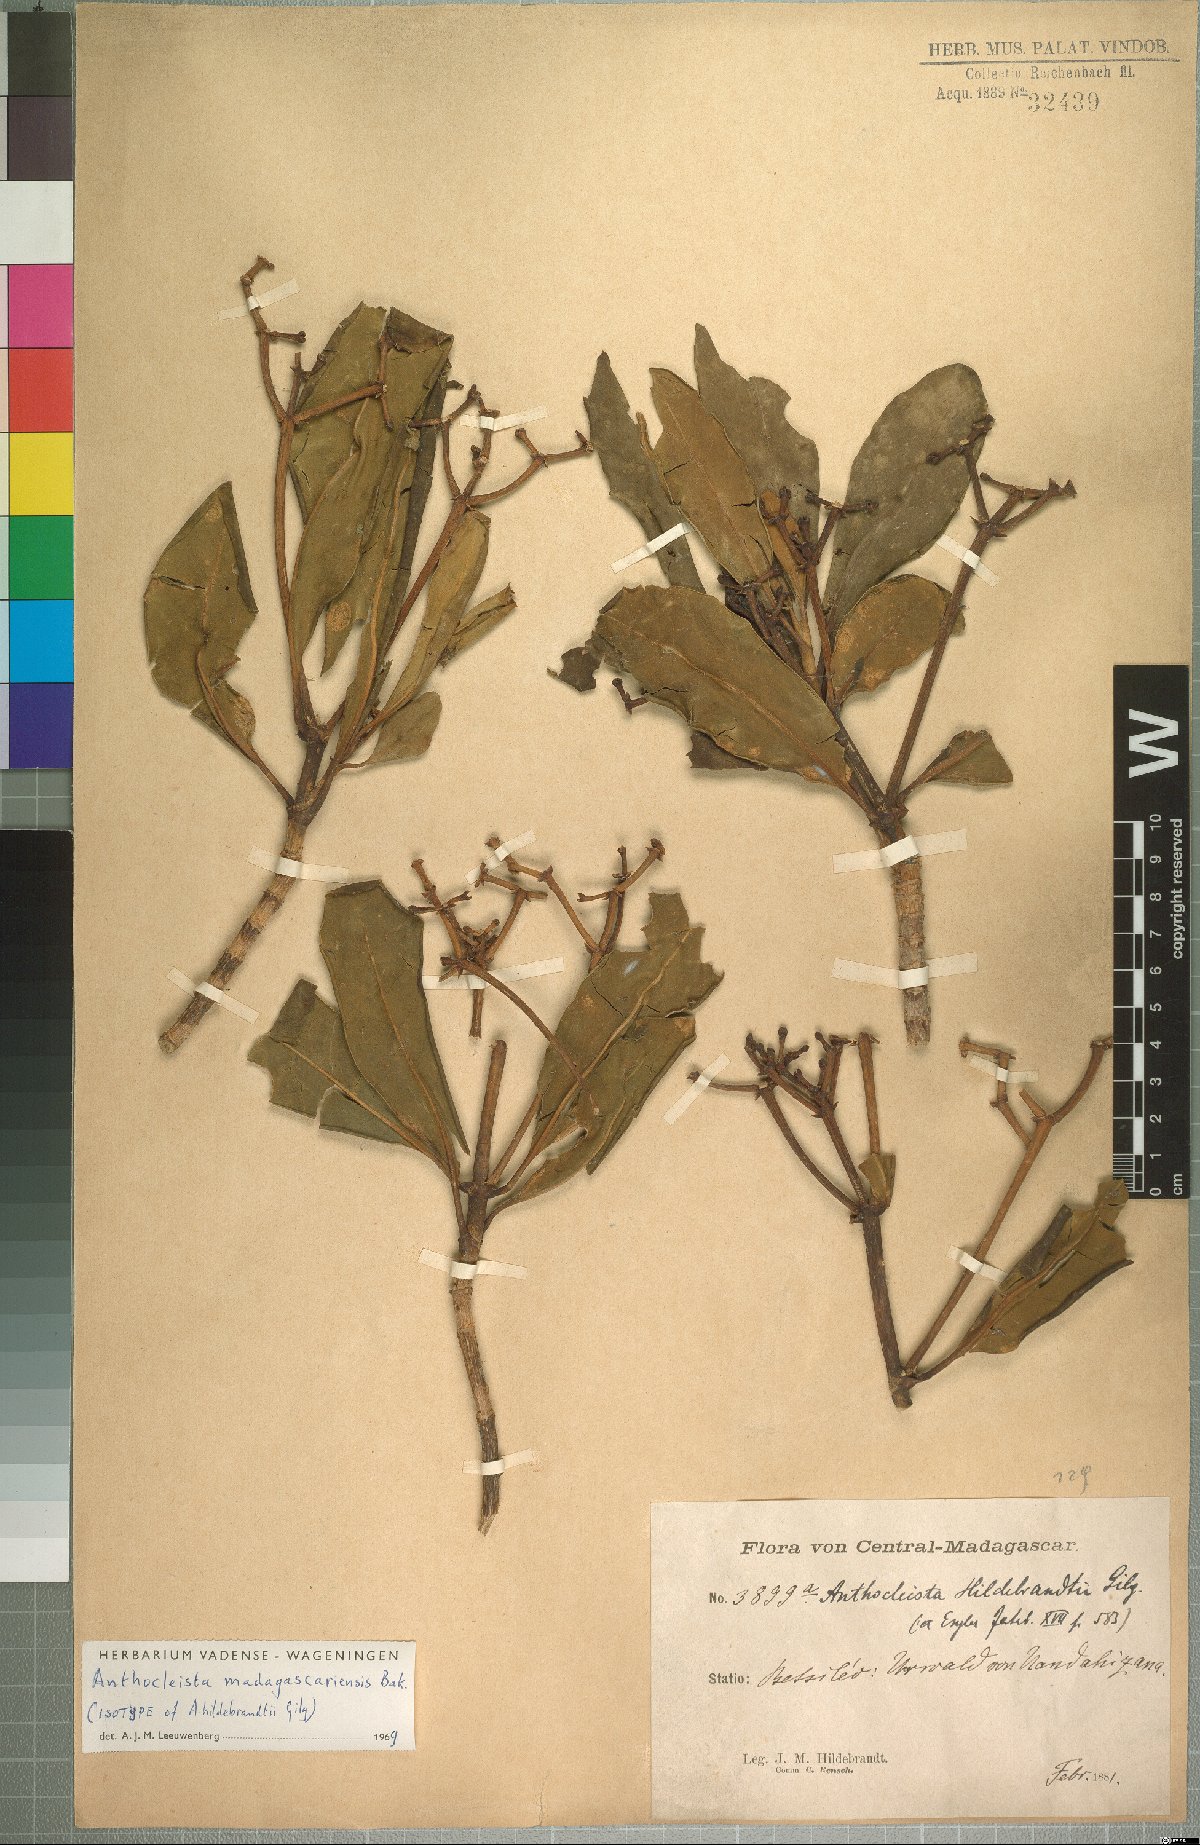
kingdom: Plantae
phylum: Tracheophyta
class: Magnoliopsida
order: Gentianales
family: Gentianaceae
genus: Anthocleista
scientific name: Anthocleista madagascariensis
